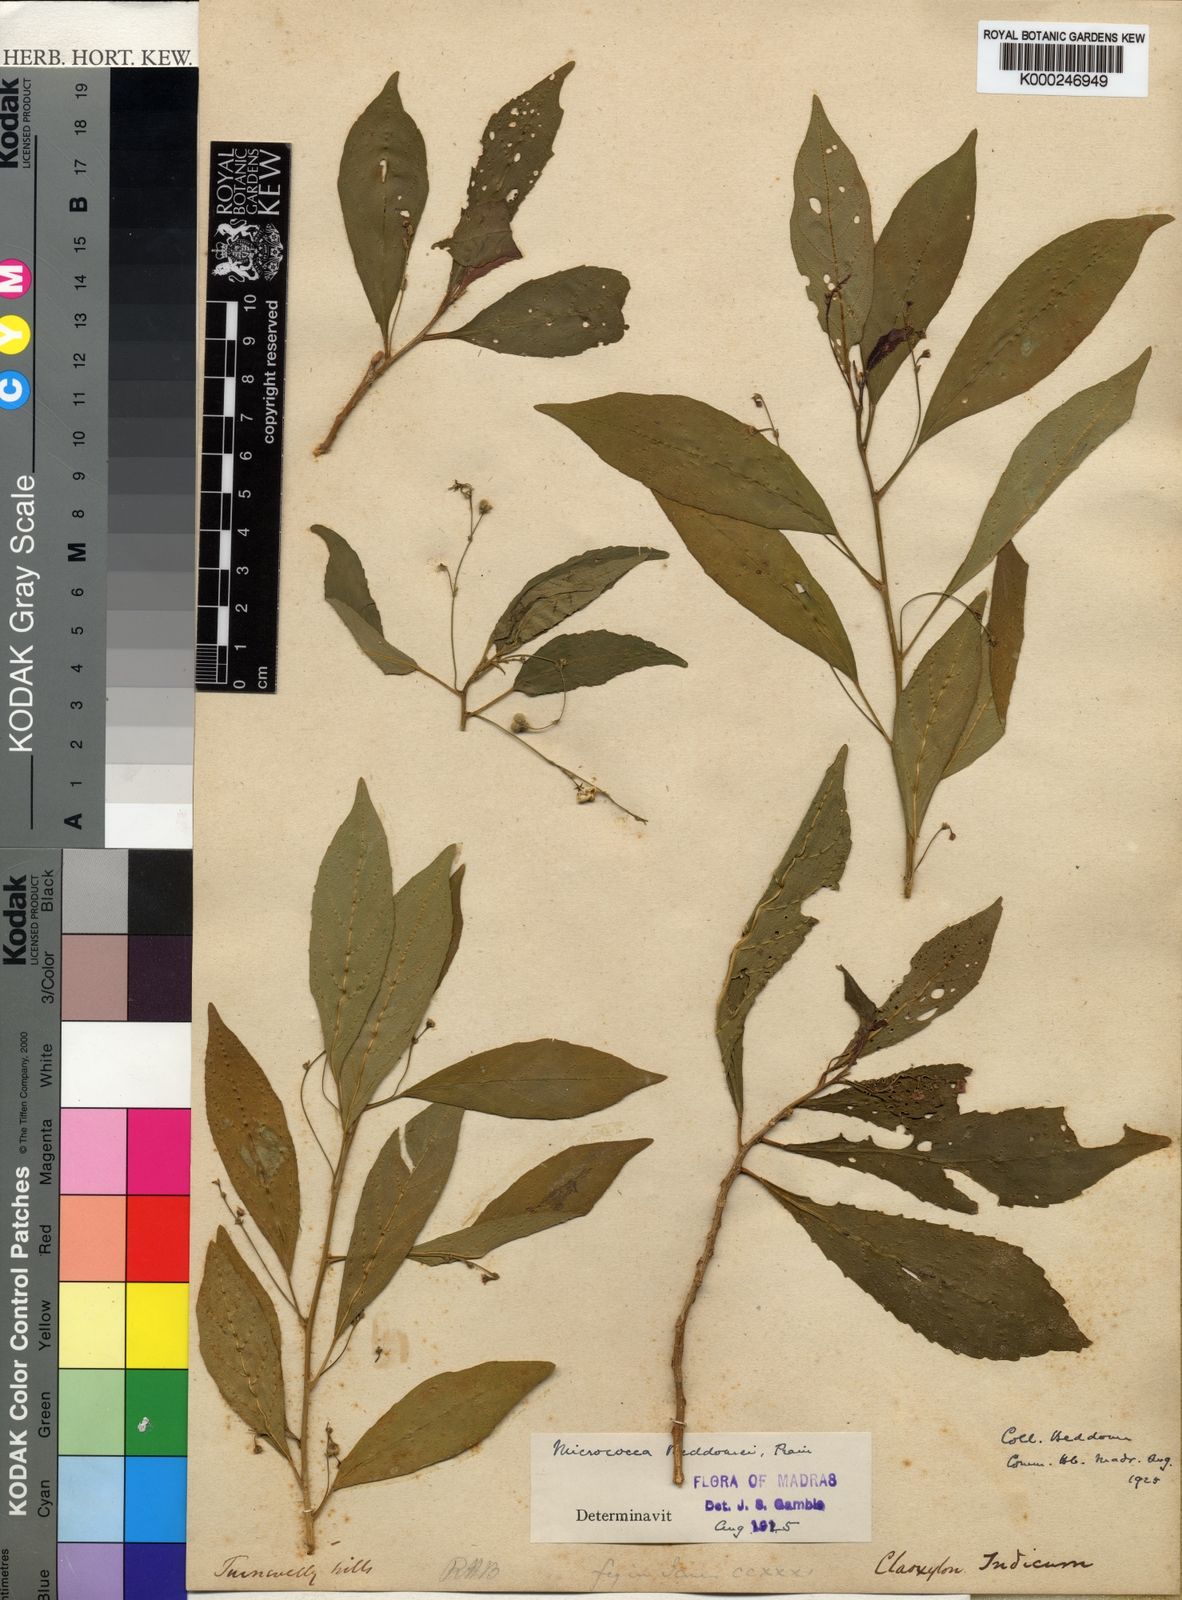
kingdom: Plantae
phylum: Tracheophyta
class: Magnoliopsida
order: Malpighiales
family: Euphorbiaceae
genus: Micrococca
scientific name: Micrococca beddomei
